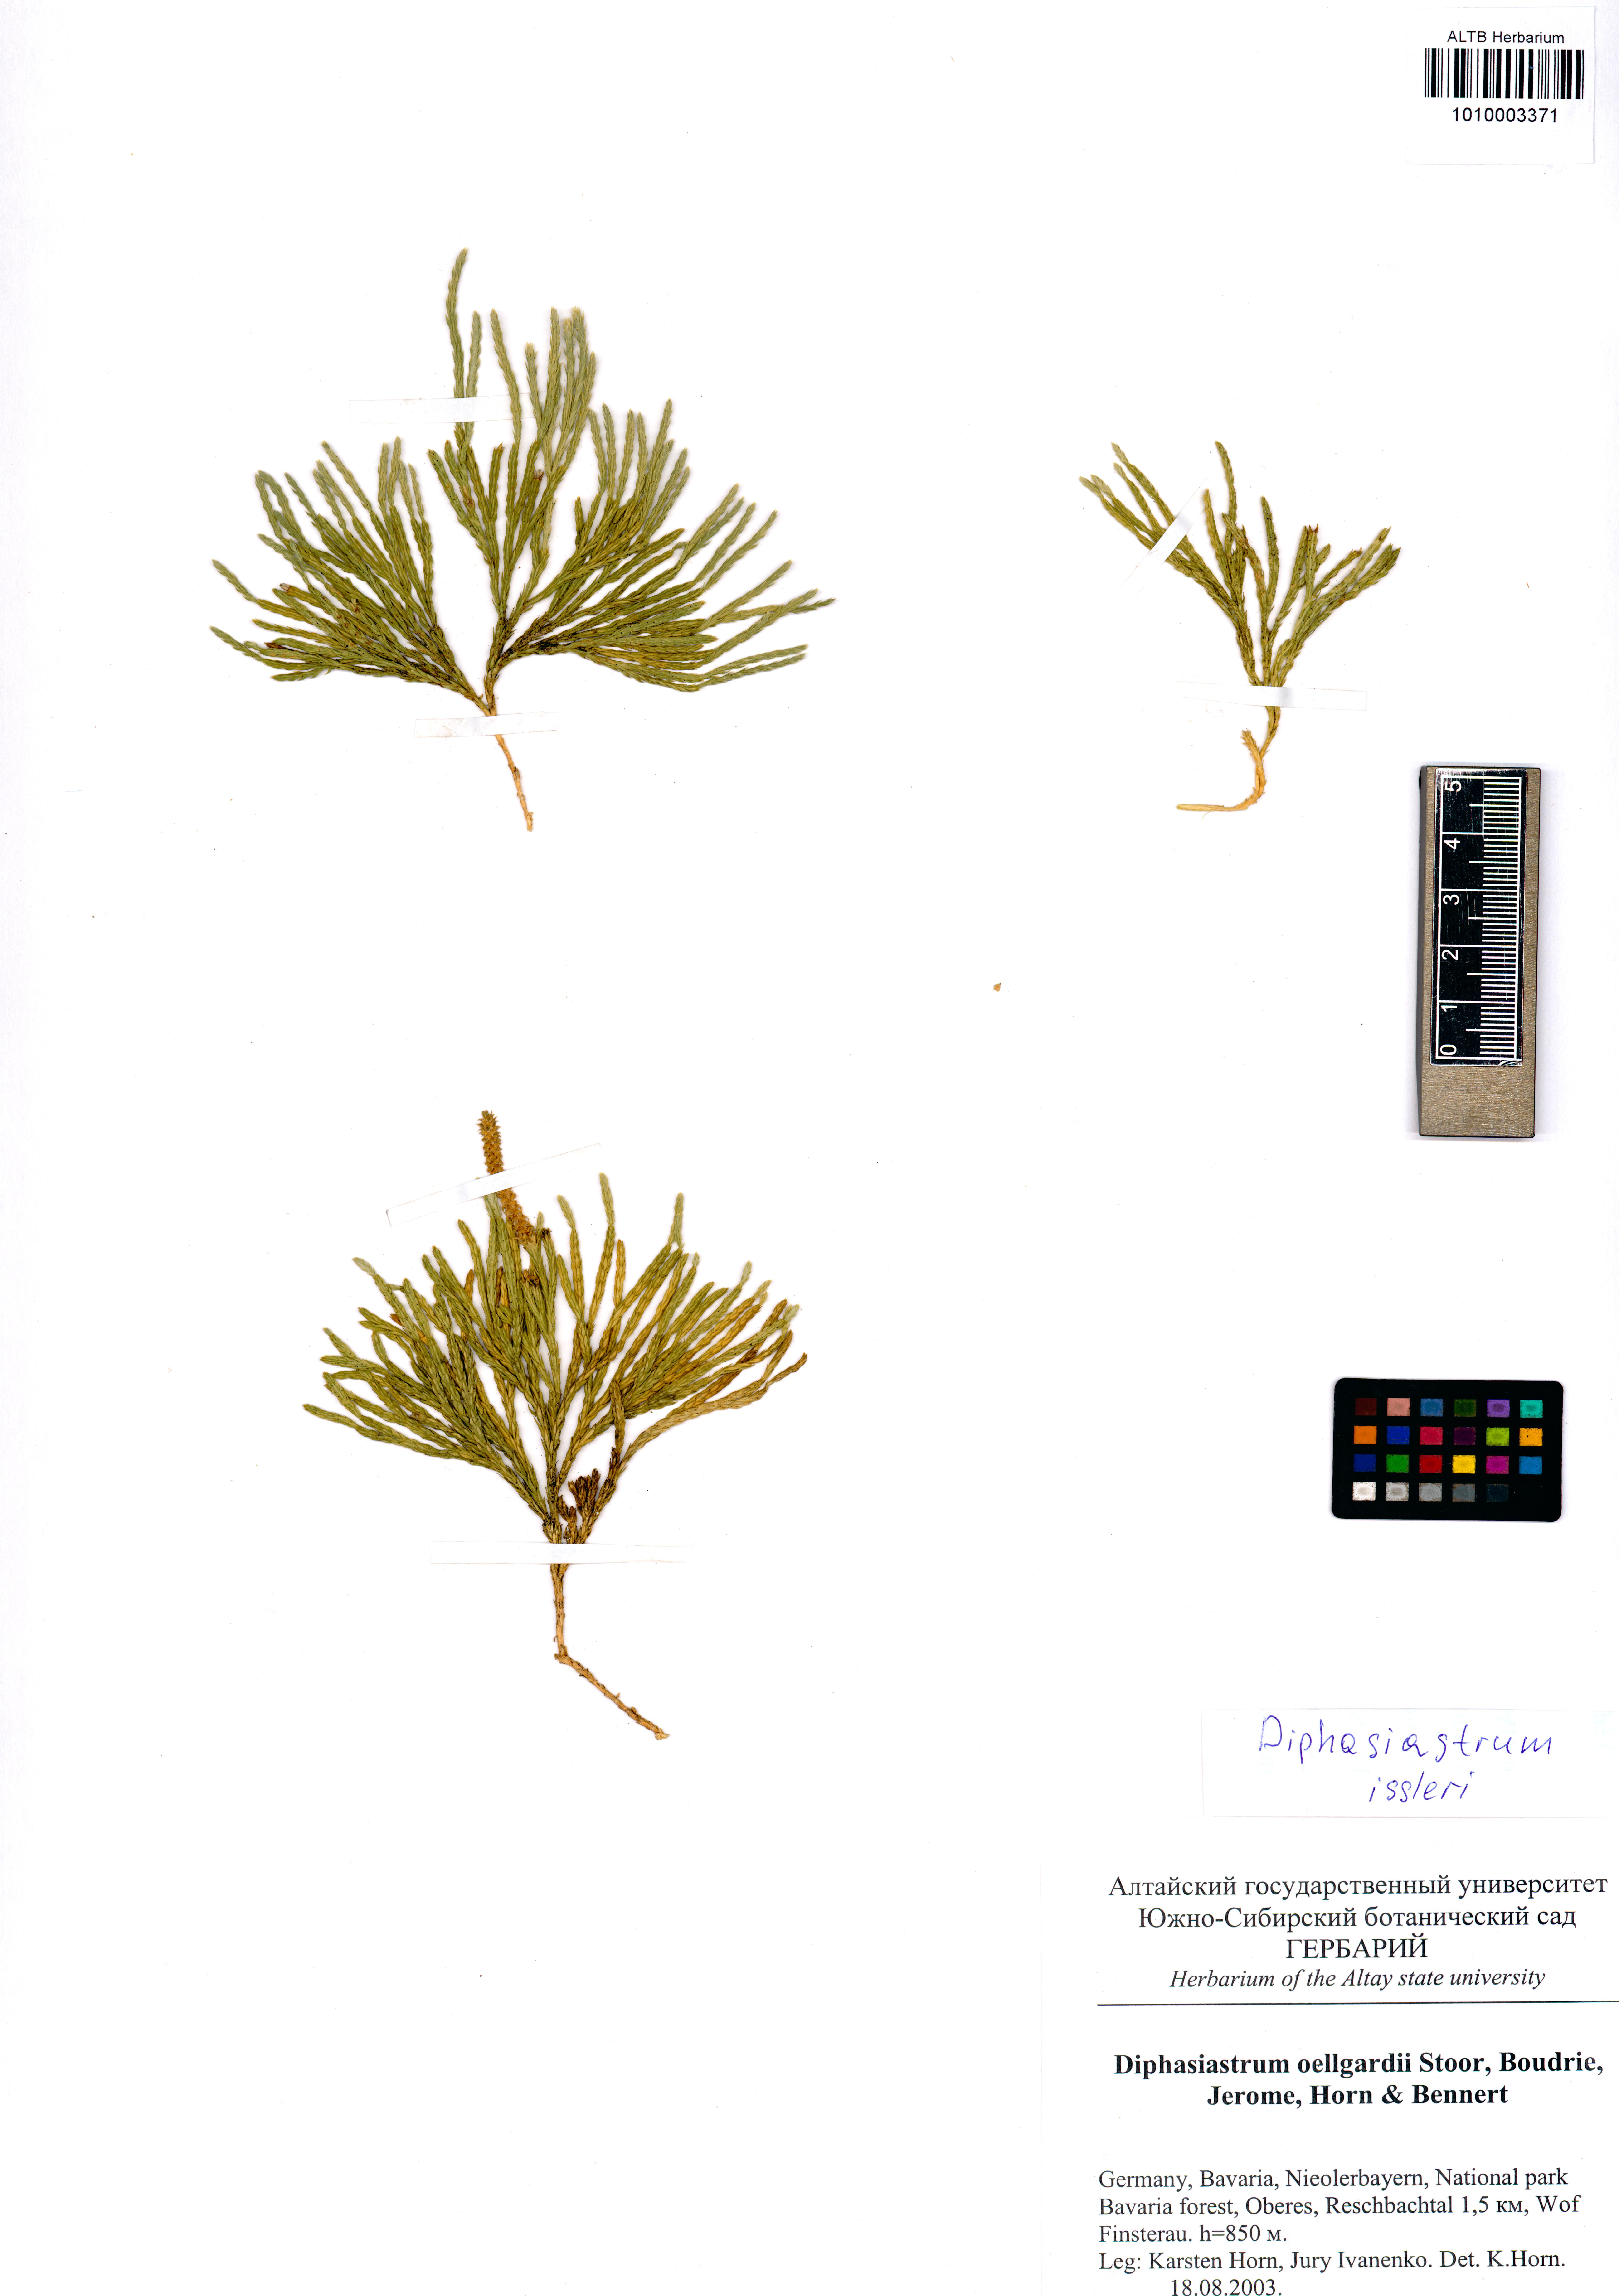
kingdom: Plantae
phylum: Tracheophyta
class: Lycopodiopsida
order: Lycopodiales
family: Lycopodiaceae
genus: Diphasiastrum
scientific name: Diphasiastrum issleri
